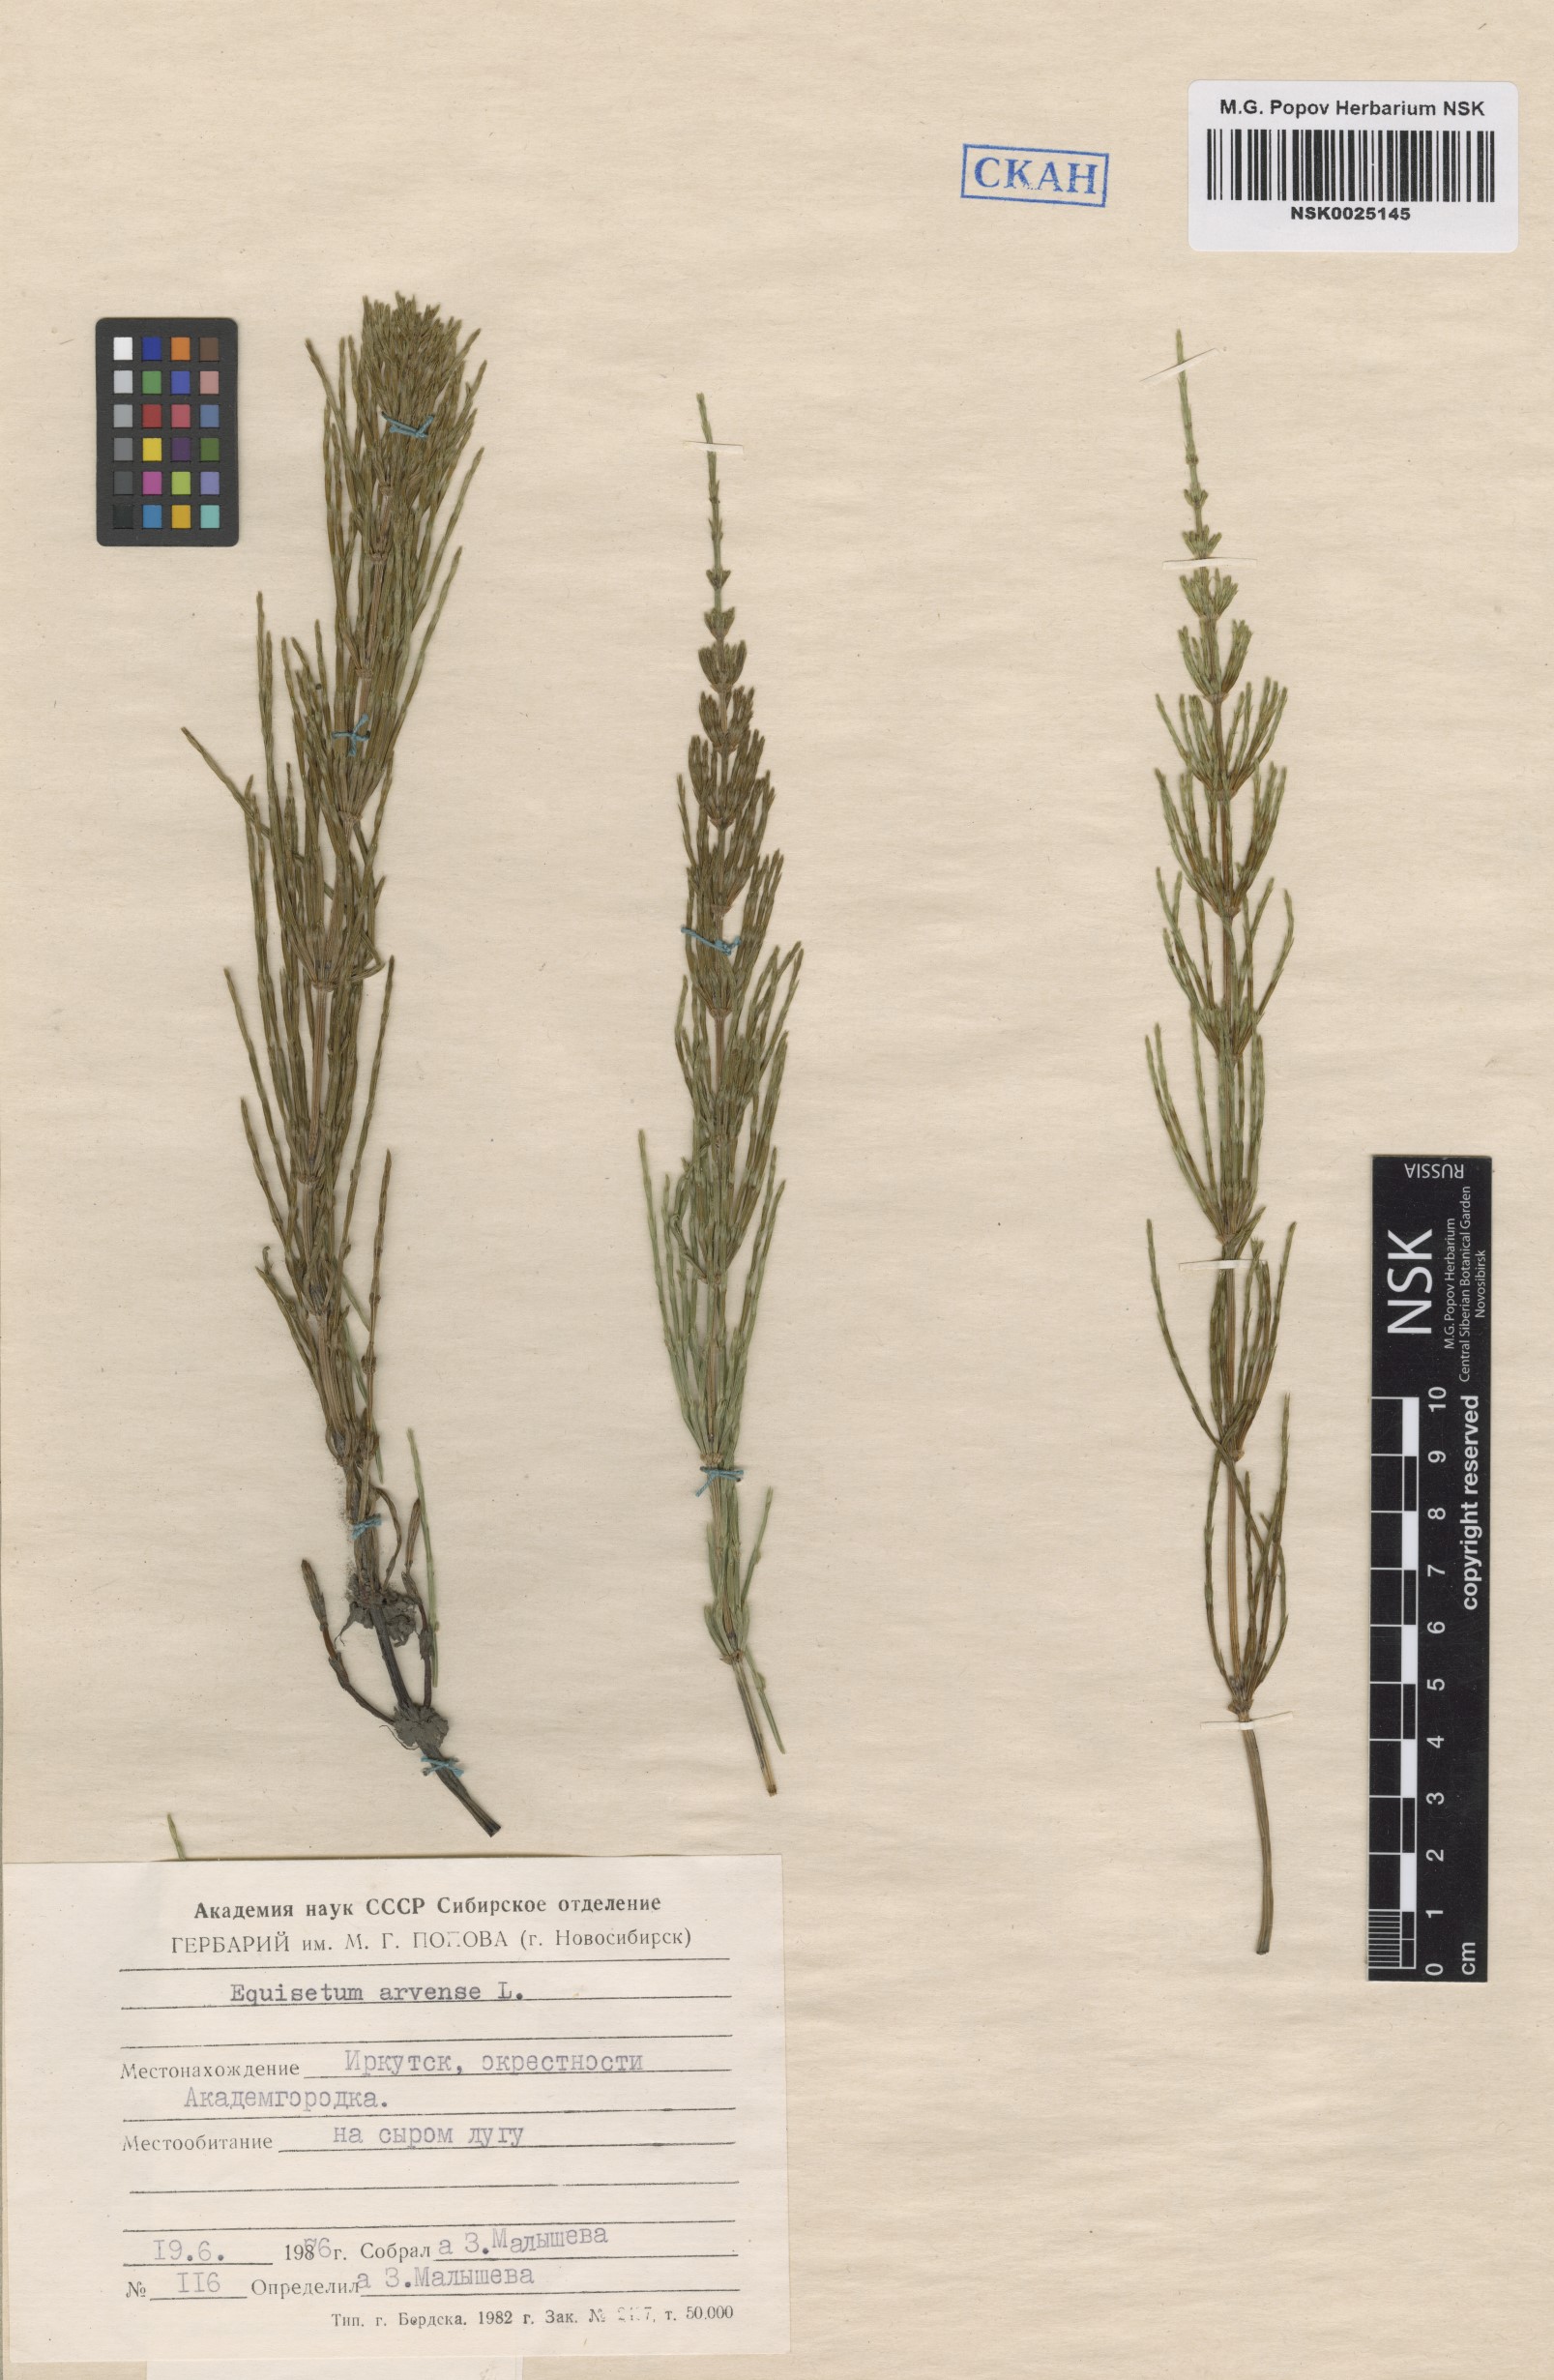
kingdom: Plantae
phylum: Tracheophyta
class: Polypodiopsida
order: Equisetales
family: Equisetaceae
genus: Equisetum
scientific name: Equisetum arvense
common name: Field horsetail
